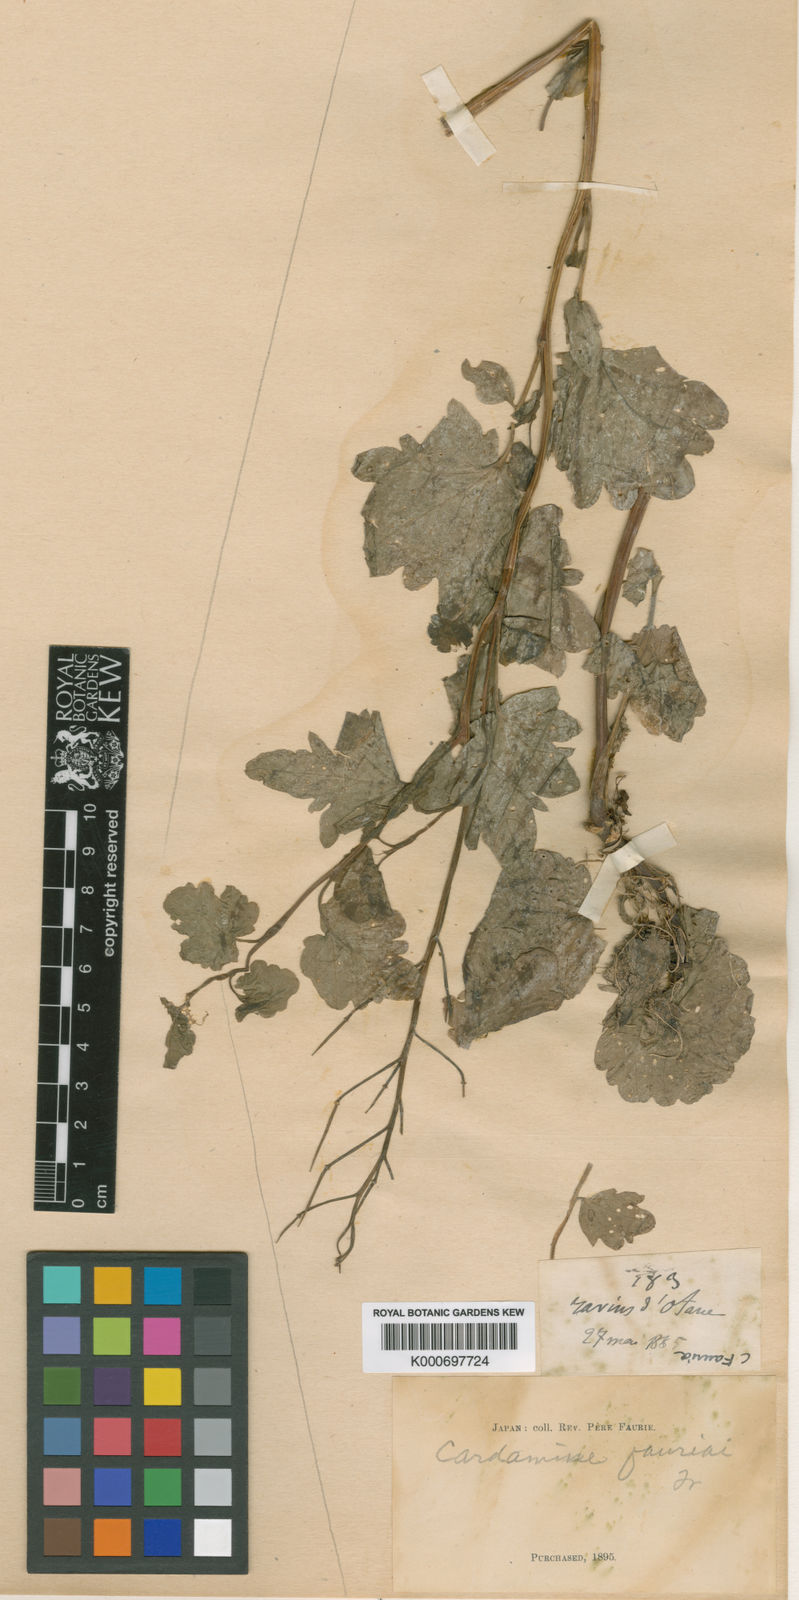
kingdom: Plantae
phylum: Tracheophyta
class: Magnoliopsida
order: Brassicales
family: Brassicaceae
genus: Cardamine
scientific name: Cardamine yezoensis
